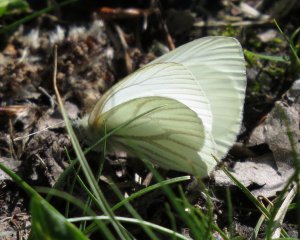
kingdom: Animalia
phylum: Arthropoda
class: Insecta
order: Lepidoptera
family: Pieridae
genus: Pieris
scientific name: Pieris oleracea
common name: Mustard White
